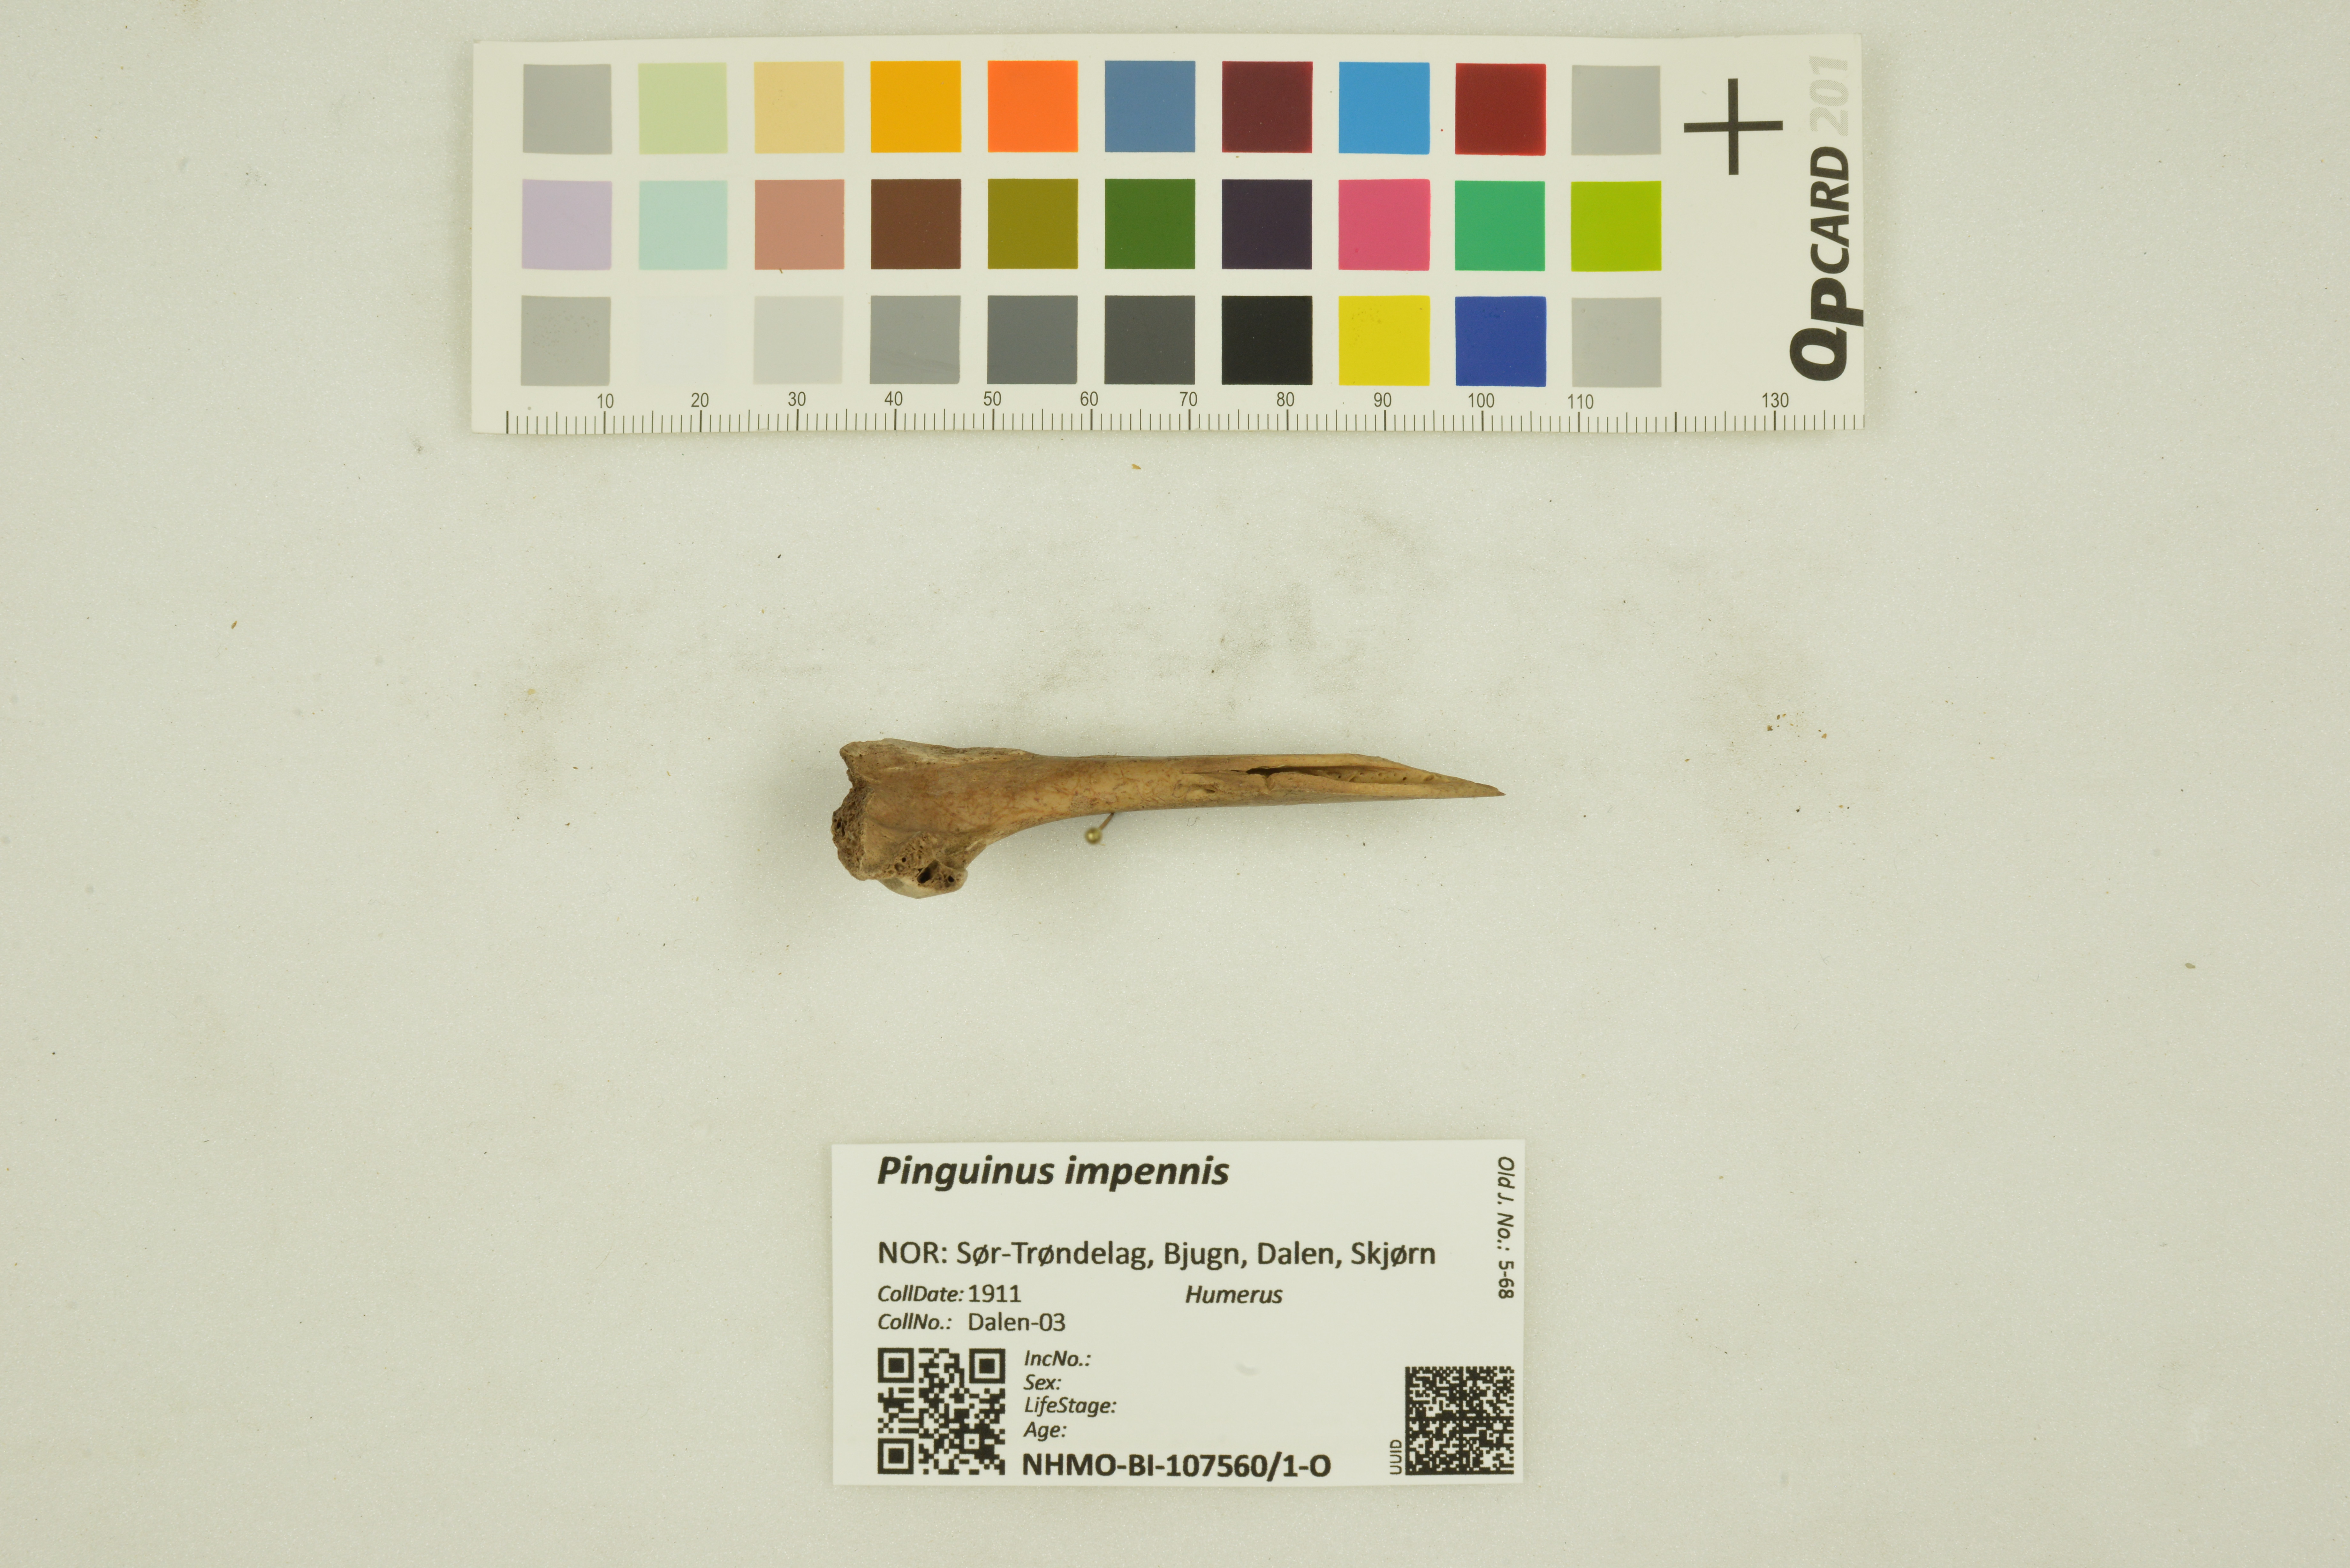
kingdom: Animalia
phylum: Chordata
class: Aves
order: Charadriiformes
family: Alcidae
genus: Pinguinus
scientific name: Pinguinus impennis
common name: Great auk
